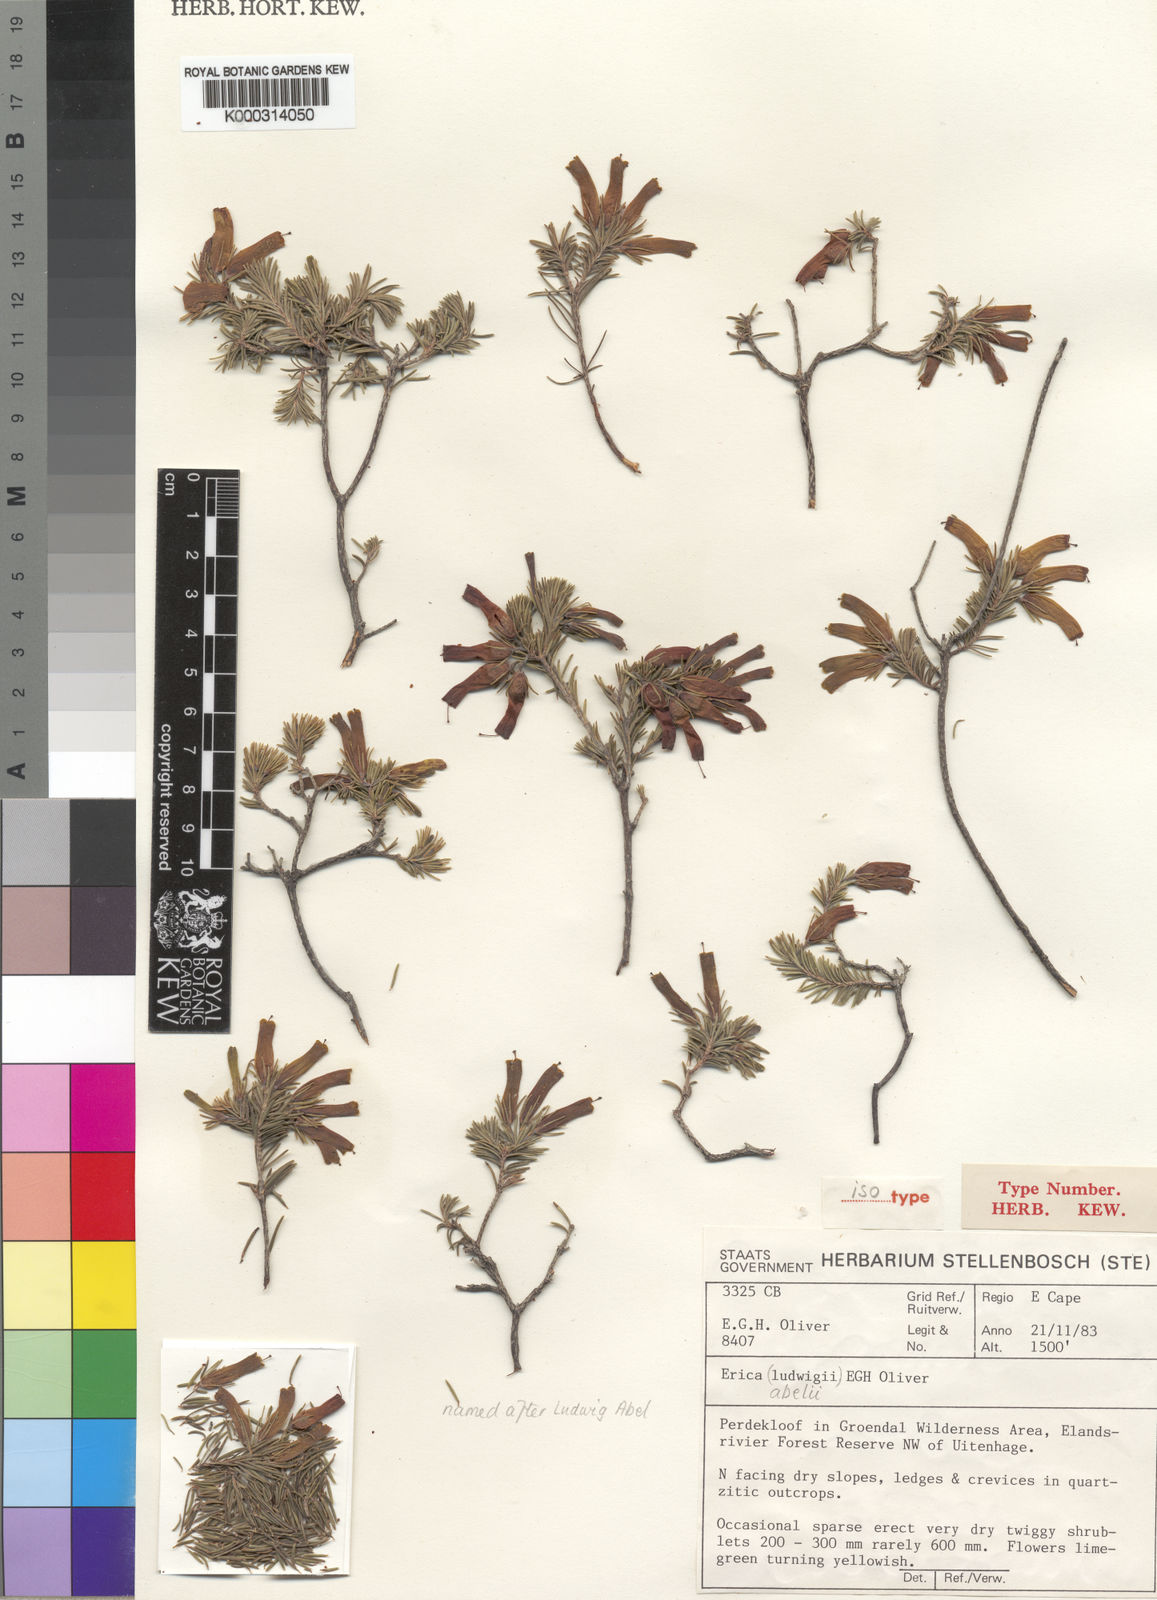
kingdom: Plantae
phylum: Tracheophyta
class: Magnoliopsida
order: Ericales
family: Ericaceae
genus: Erica
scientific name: Erica abelii
